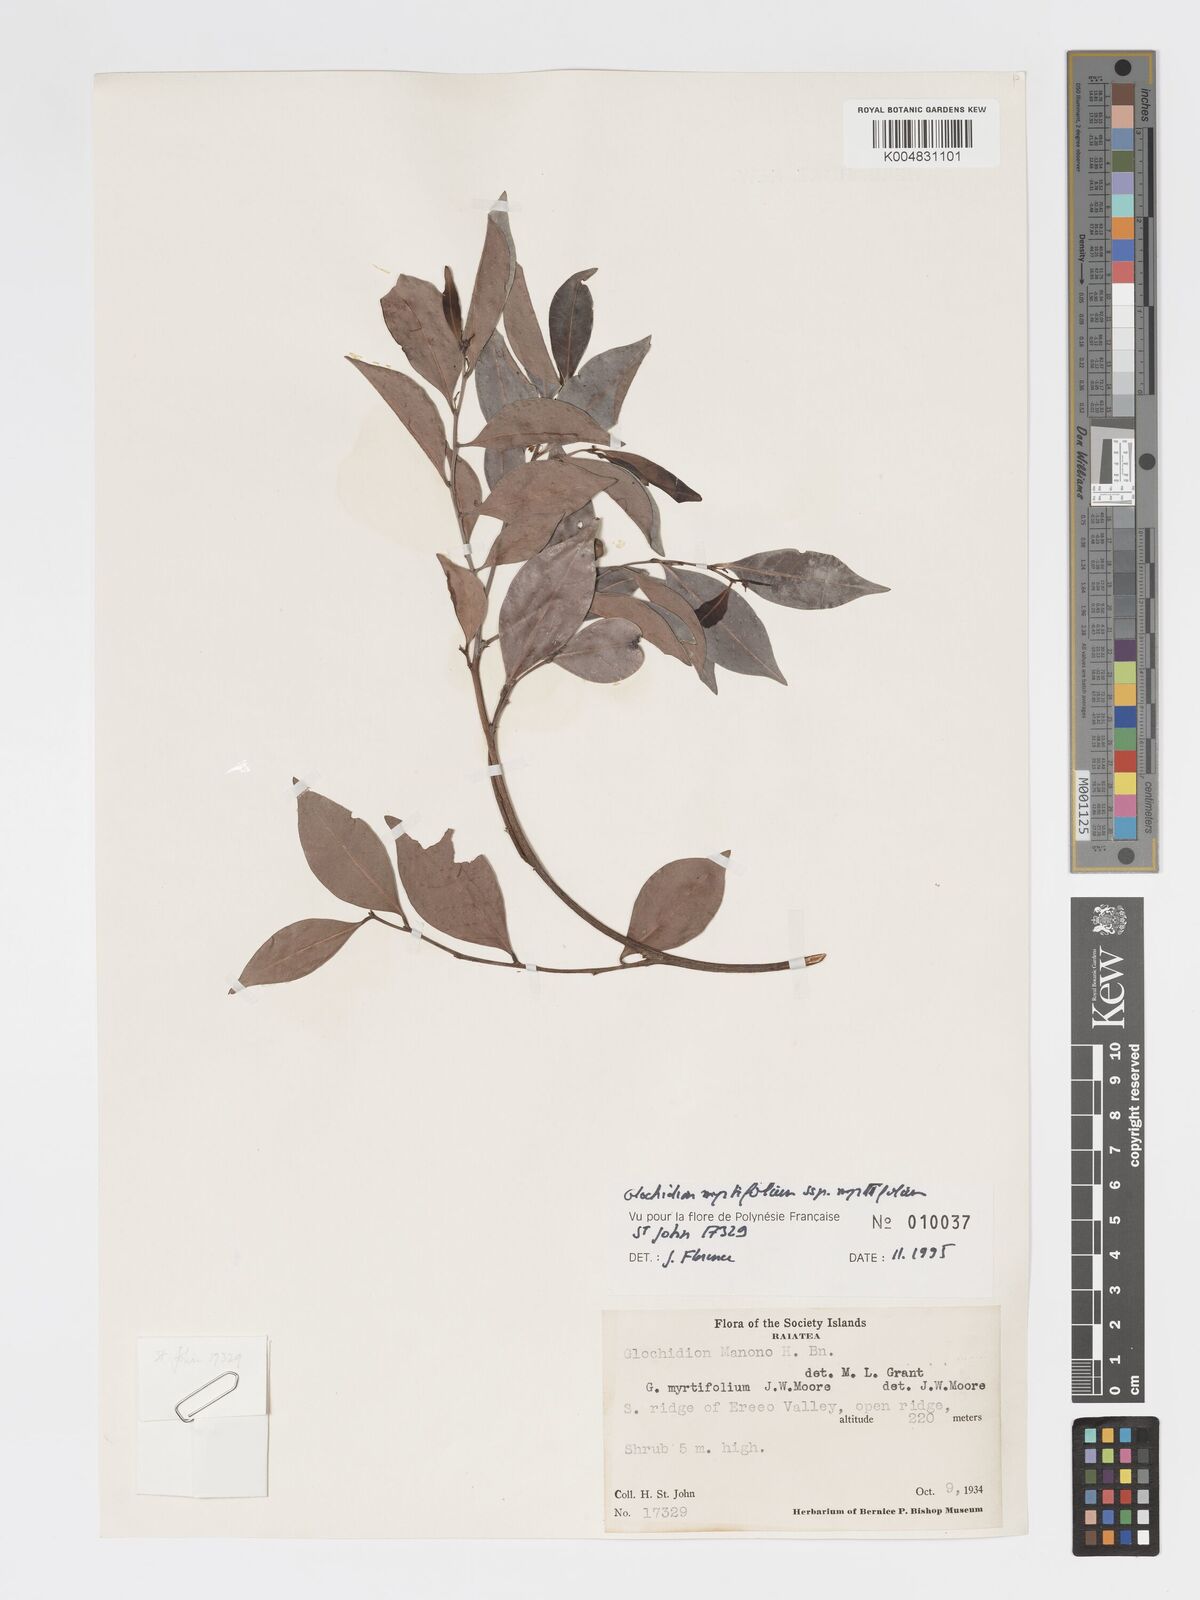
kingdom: Plantae
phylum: Tracheophyta
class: Magnoliopsida
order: Malpighiales
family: Phyllanthaceae
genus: Glochidion
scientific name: Glochidion myrtifolium
